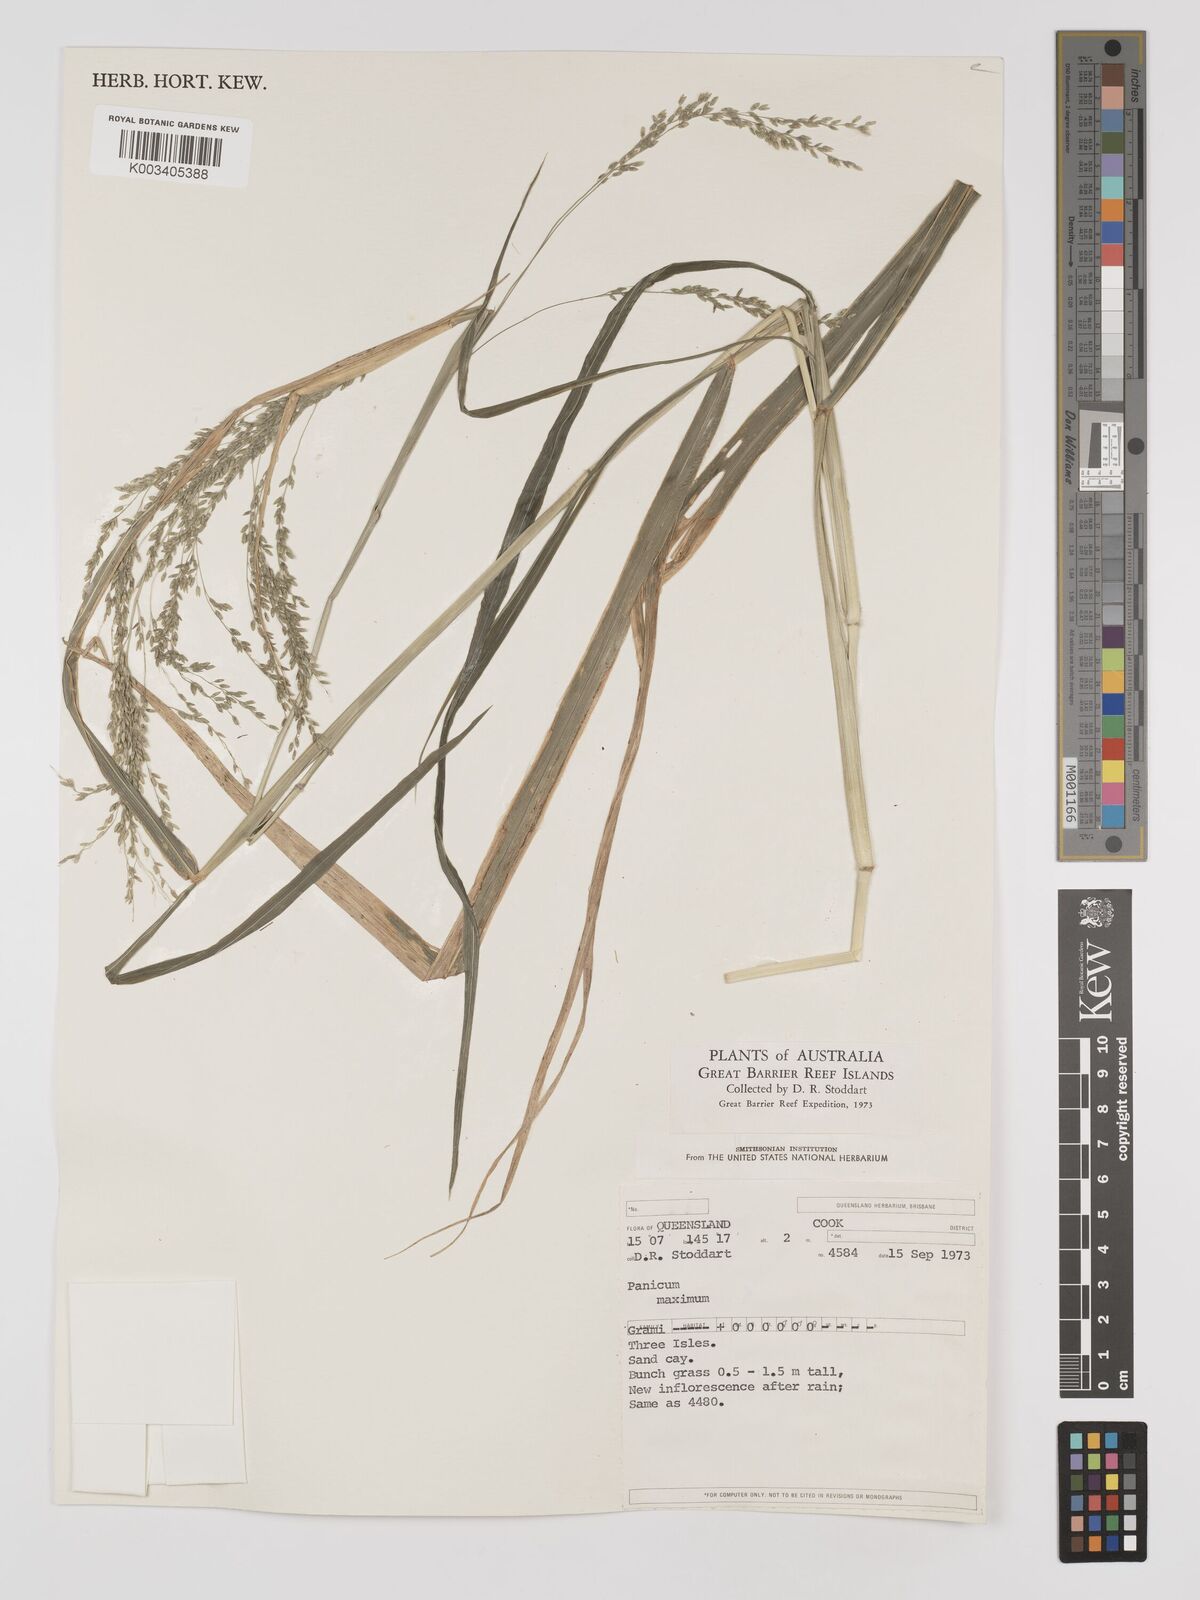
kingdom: Plantae
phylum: Tracheophyta
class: Liliopsida
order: Poales
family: Poaceae
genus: Megathyrsus
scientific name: Megathyrsus maximus
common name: Guineagrass
